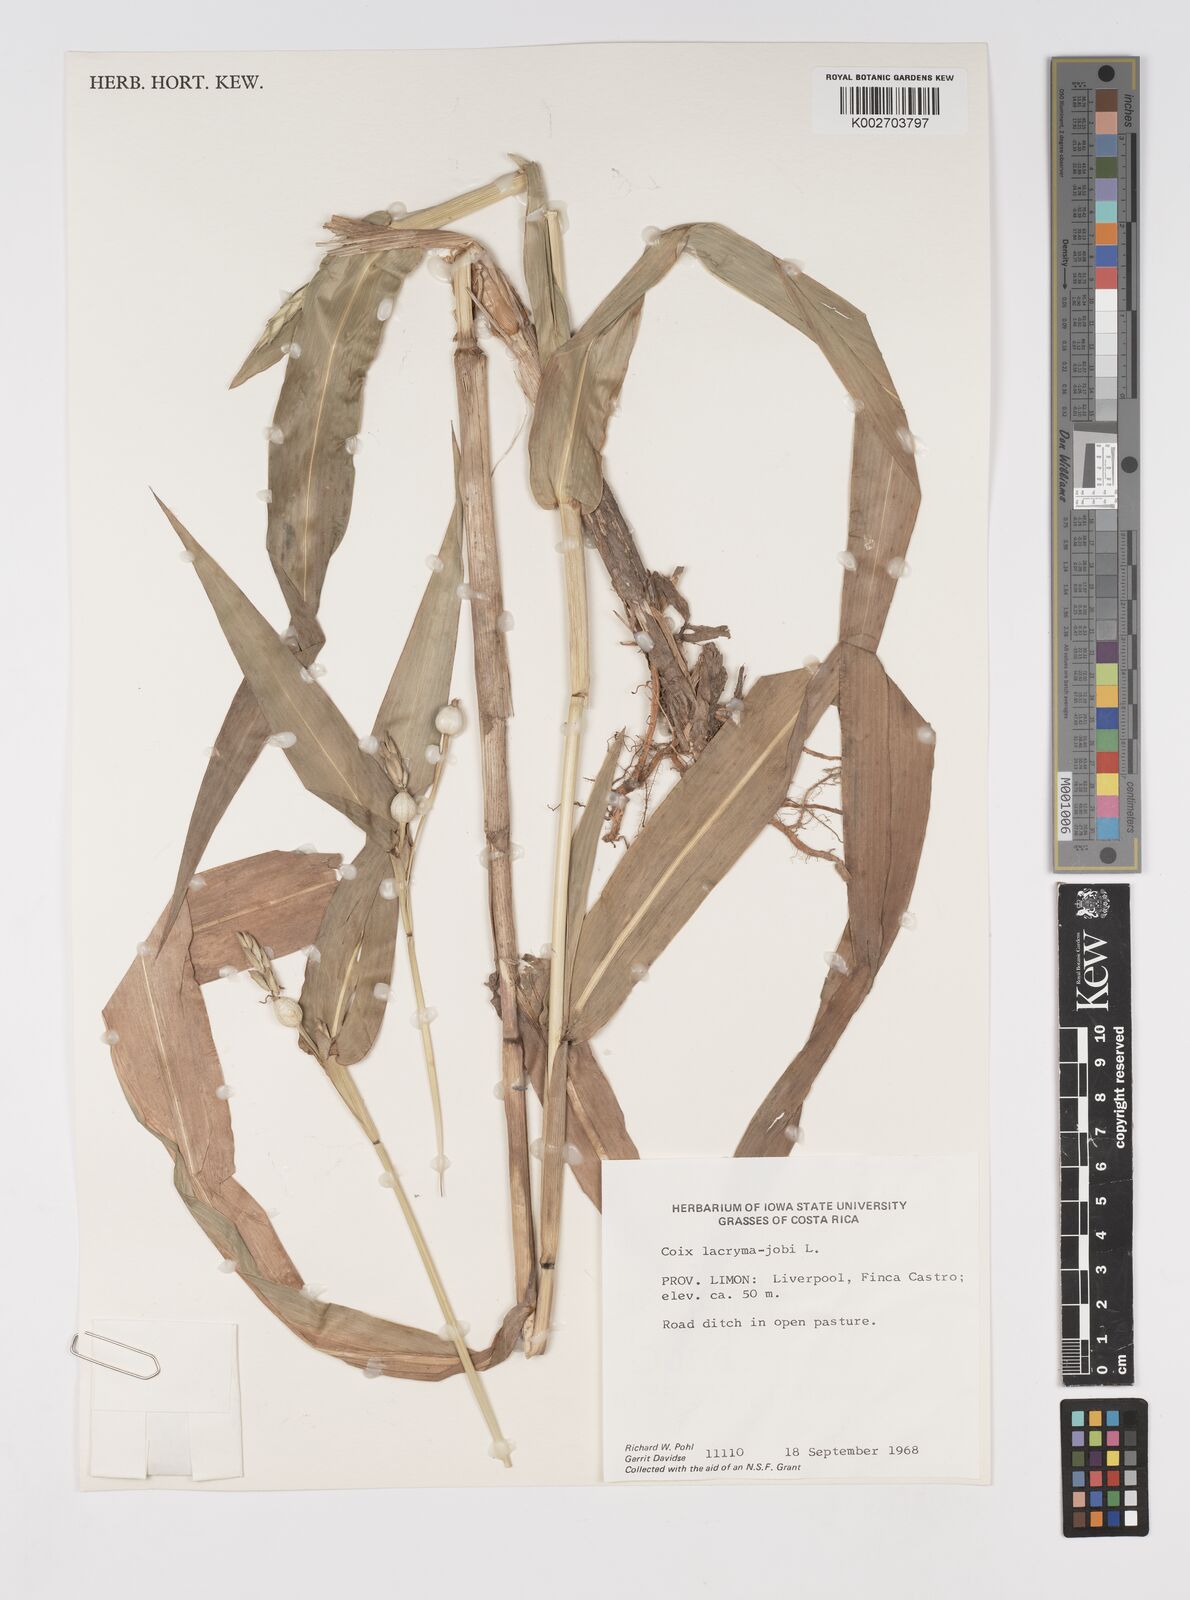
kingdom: Plantae
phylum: Tracheophyta
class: Liliopsida
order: Poales
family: Poaceae
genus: Coix
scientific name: Coix lacryma-jobi
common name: Job's tears
